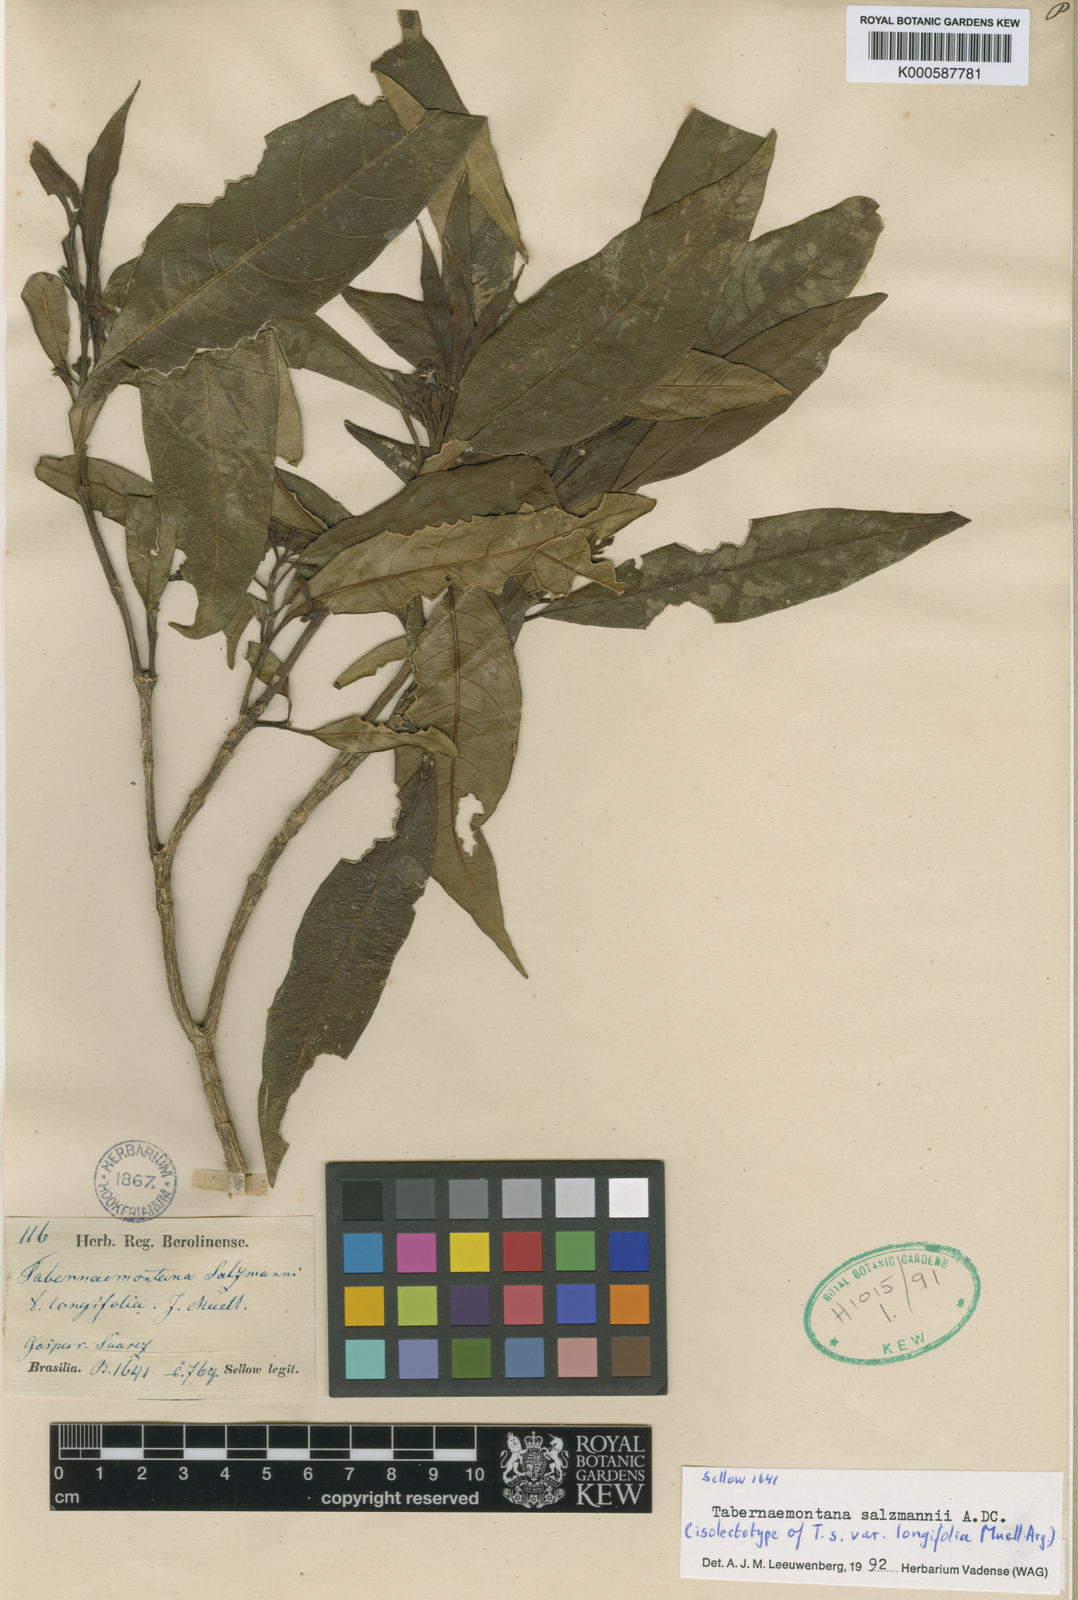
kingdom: Plantae
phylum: Tracheophyta
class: Magnoliopsida
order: Gentianales
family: Apocynaceae
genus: Tabernaemontana
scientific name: Tabernaemontana salzmannii
